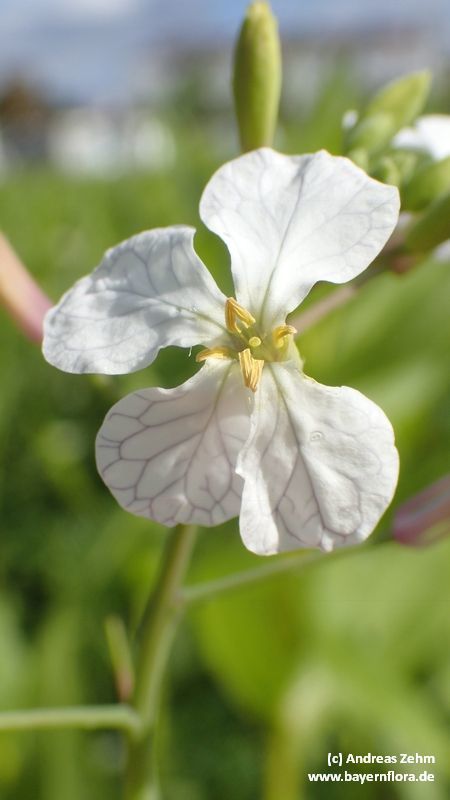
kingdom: Plantae
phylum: Tracheophyta
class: Magnoliopsida
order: Brassicales
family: Brassicaceae
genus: Raphanus
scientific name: Raphanus sativus
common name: Cultivated radish
